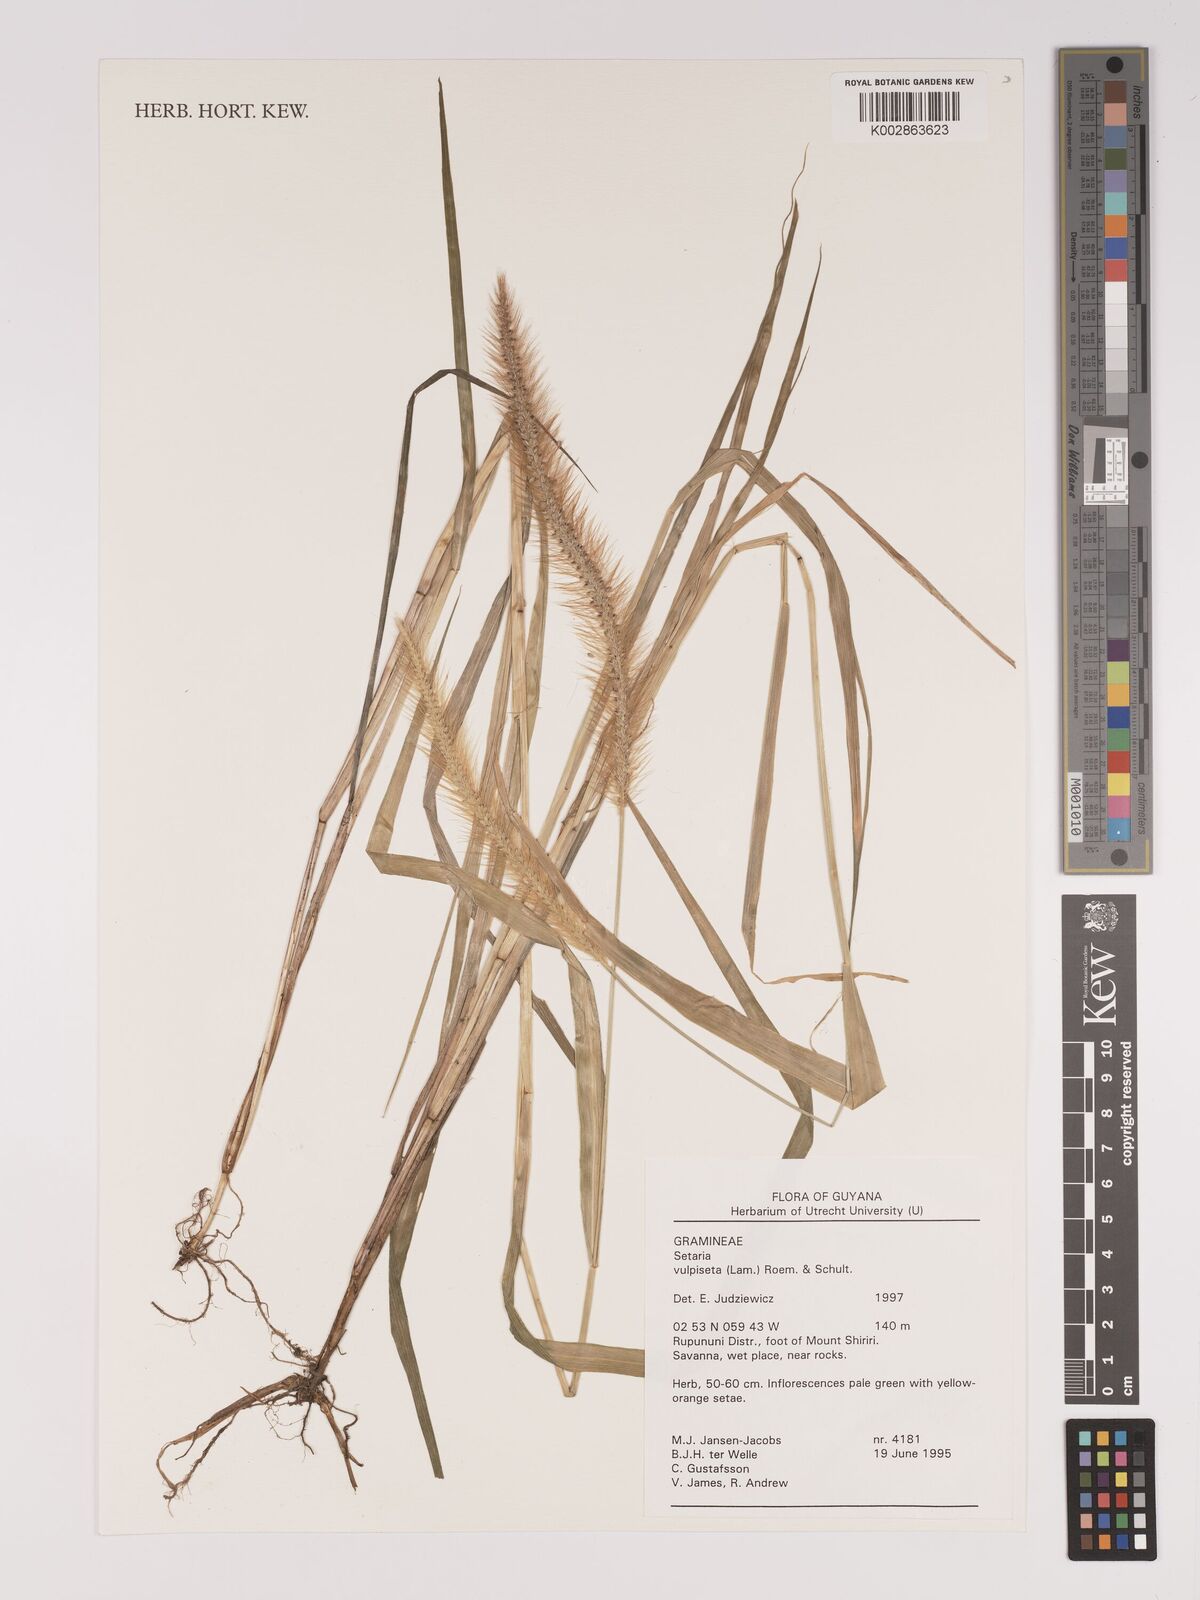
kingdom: Plantae
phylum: Tracheophyta
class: Liliopsida
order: Poales
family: Poaceae
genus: Setaria
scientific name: Setaria vulpiseta
